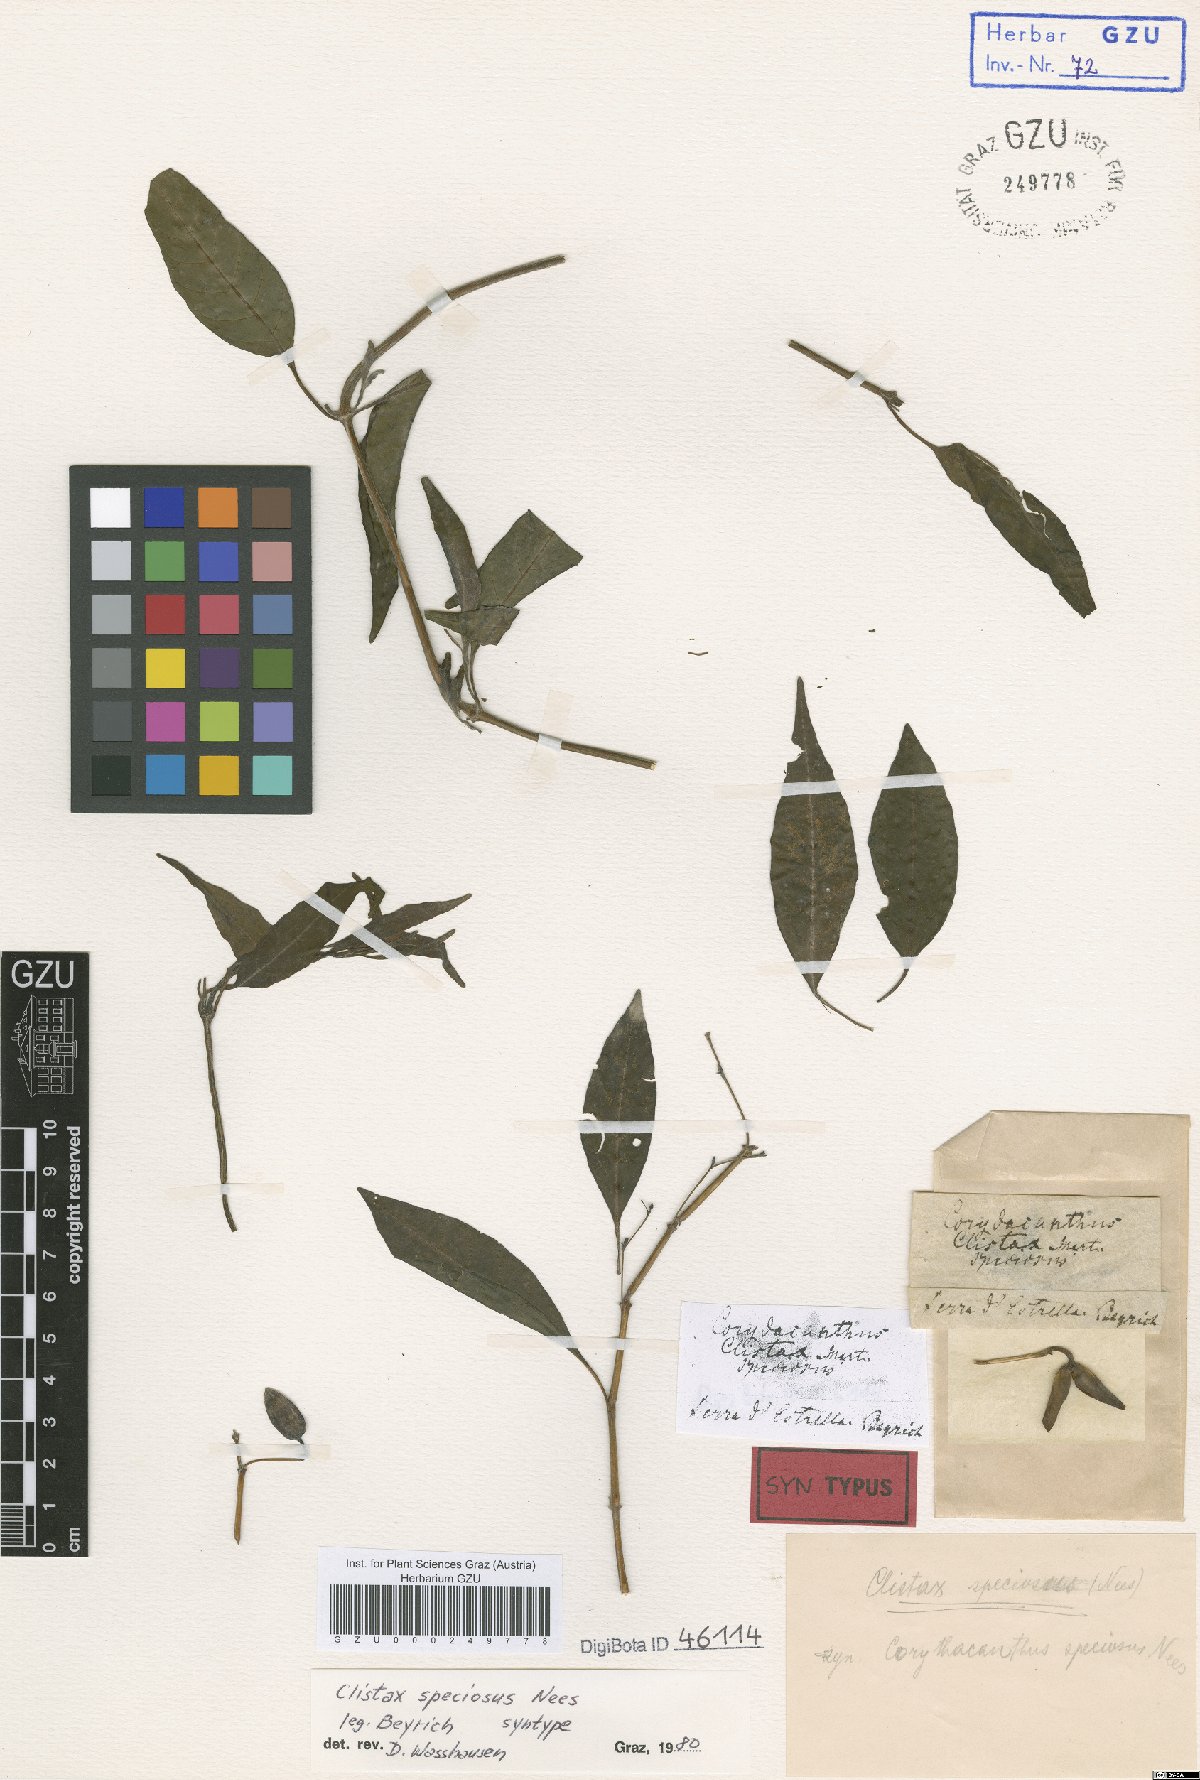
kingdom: Plantae
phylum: Tracheophyta
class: Magnoliopsida
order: Lamiales
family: Acanthaceae
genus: Clistax
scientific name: Clistax speciosus
